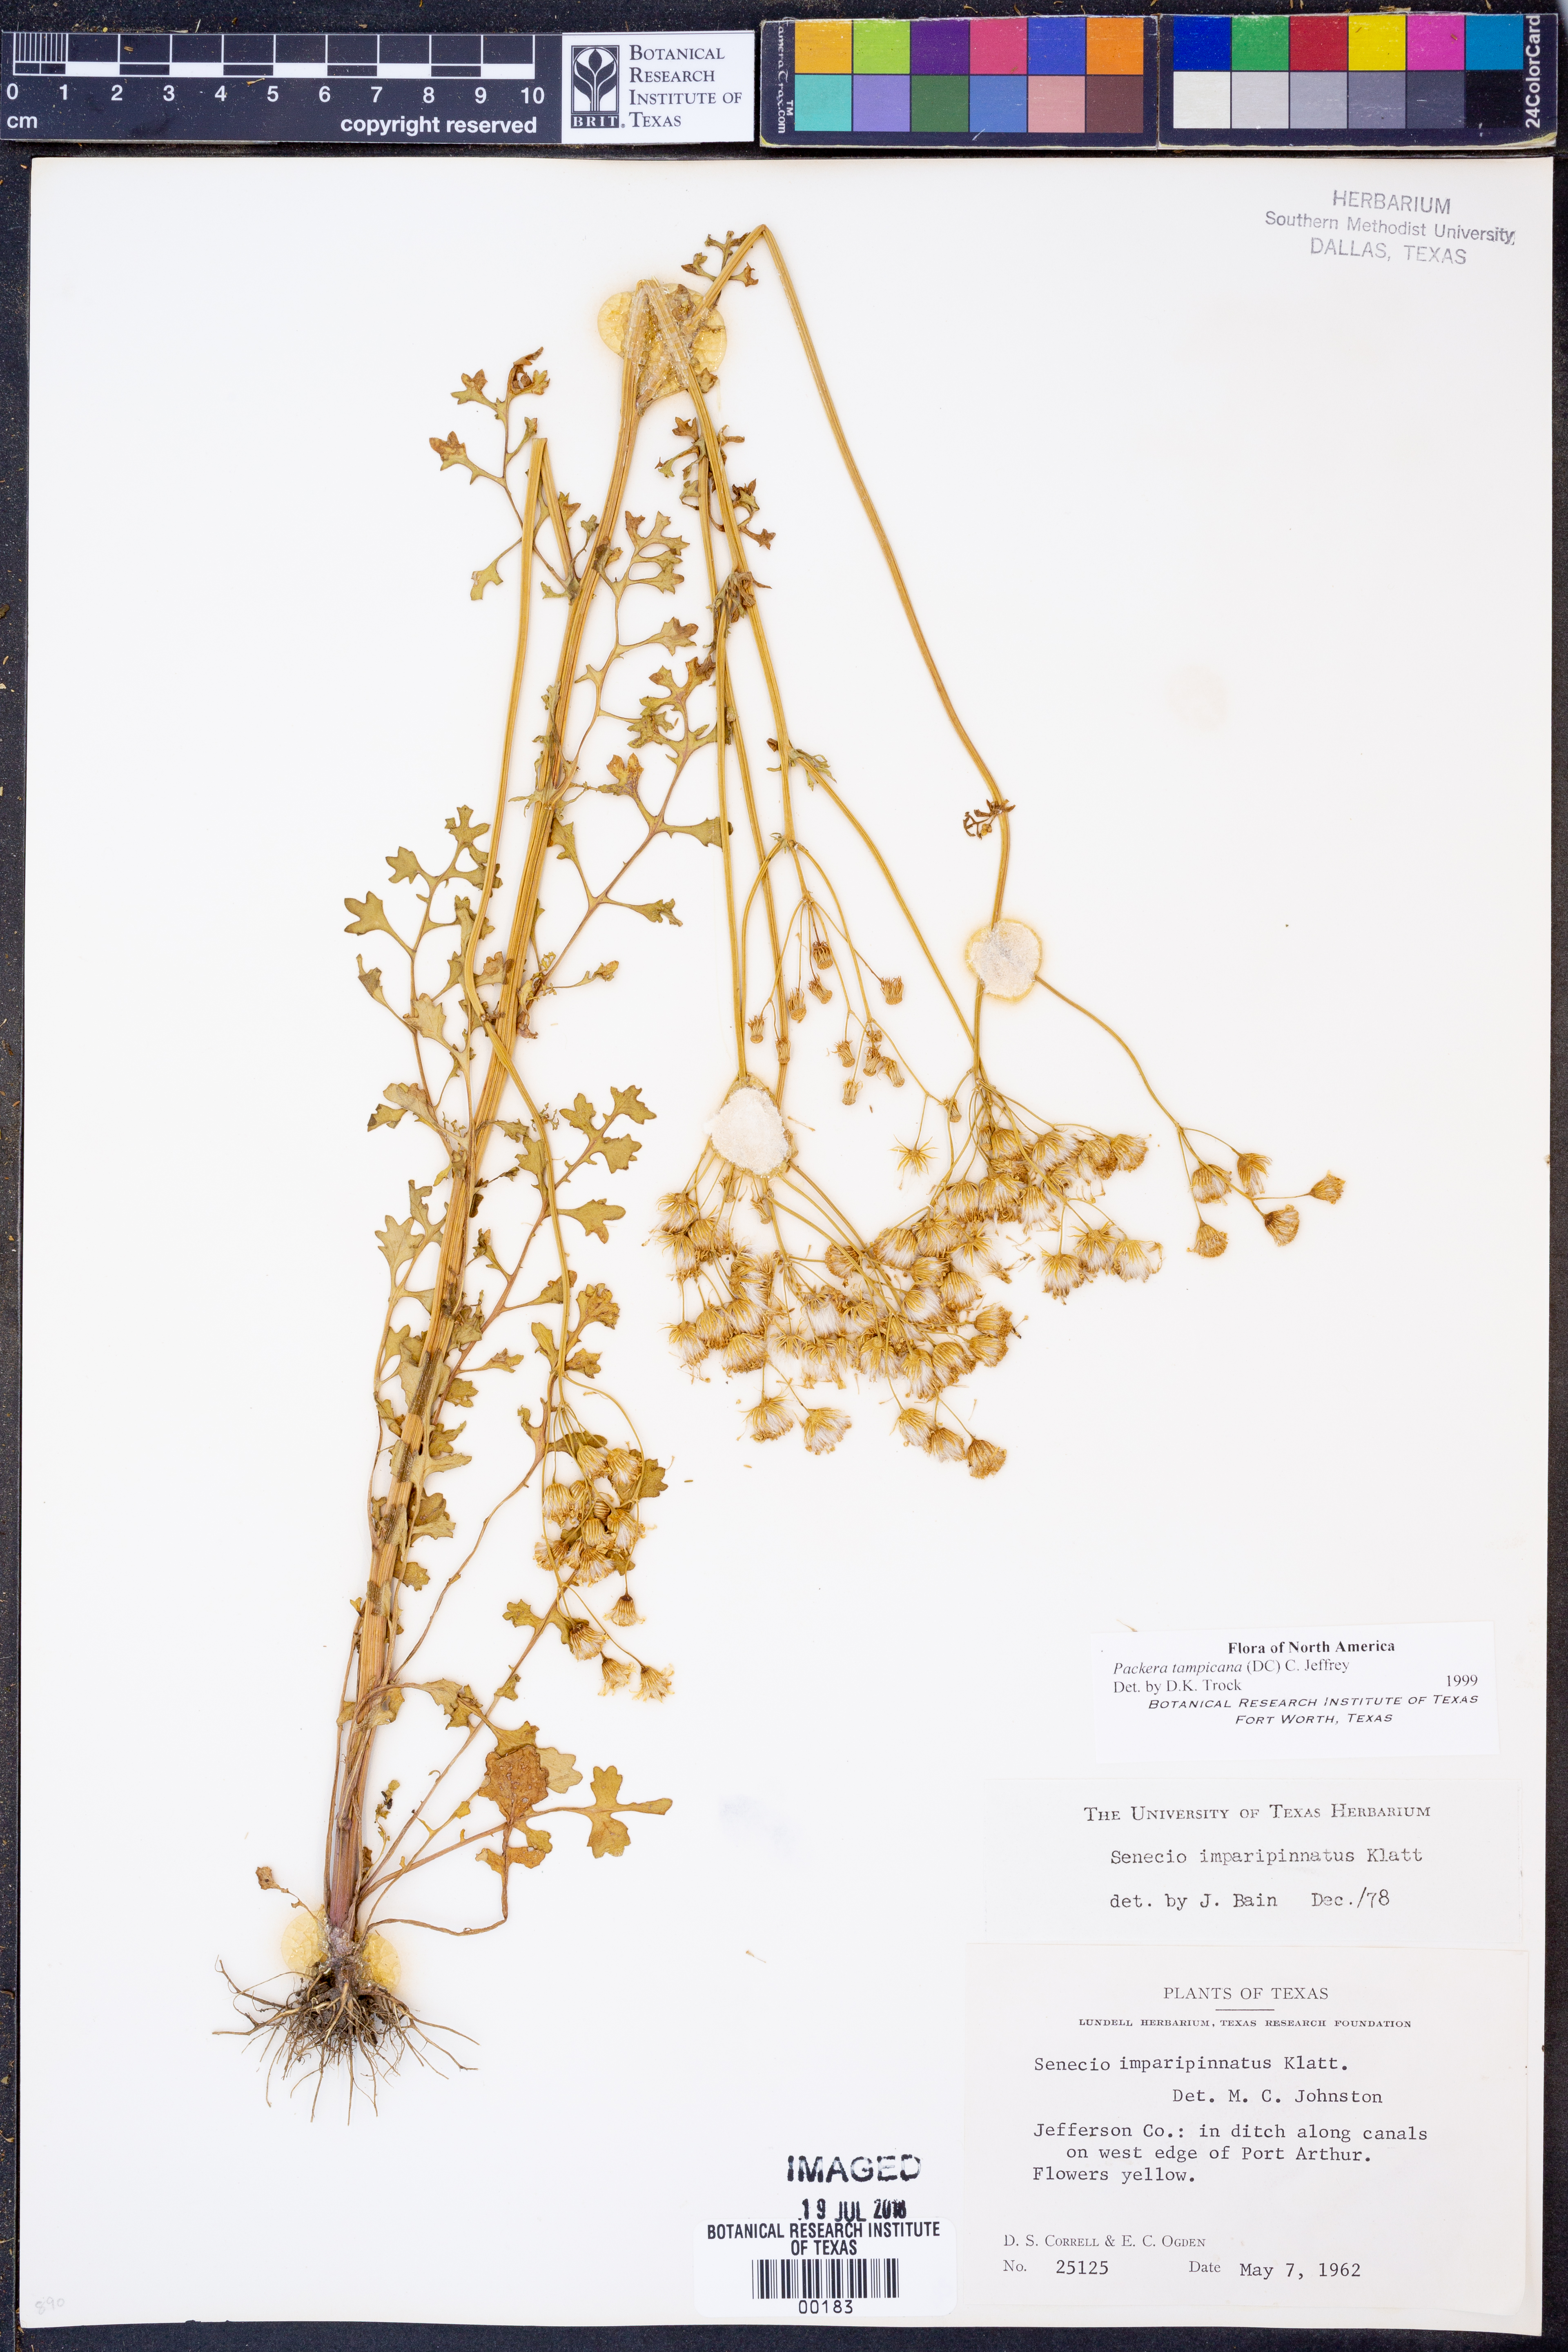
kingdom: Plantae
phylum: Tracheophyta
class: Magnoliopsida
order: Asterales
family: Asteraceae
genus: Packera
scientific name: Packera tampicana
